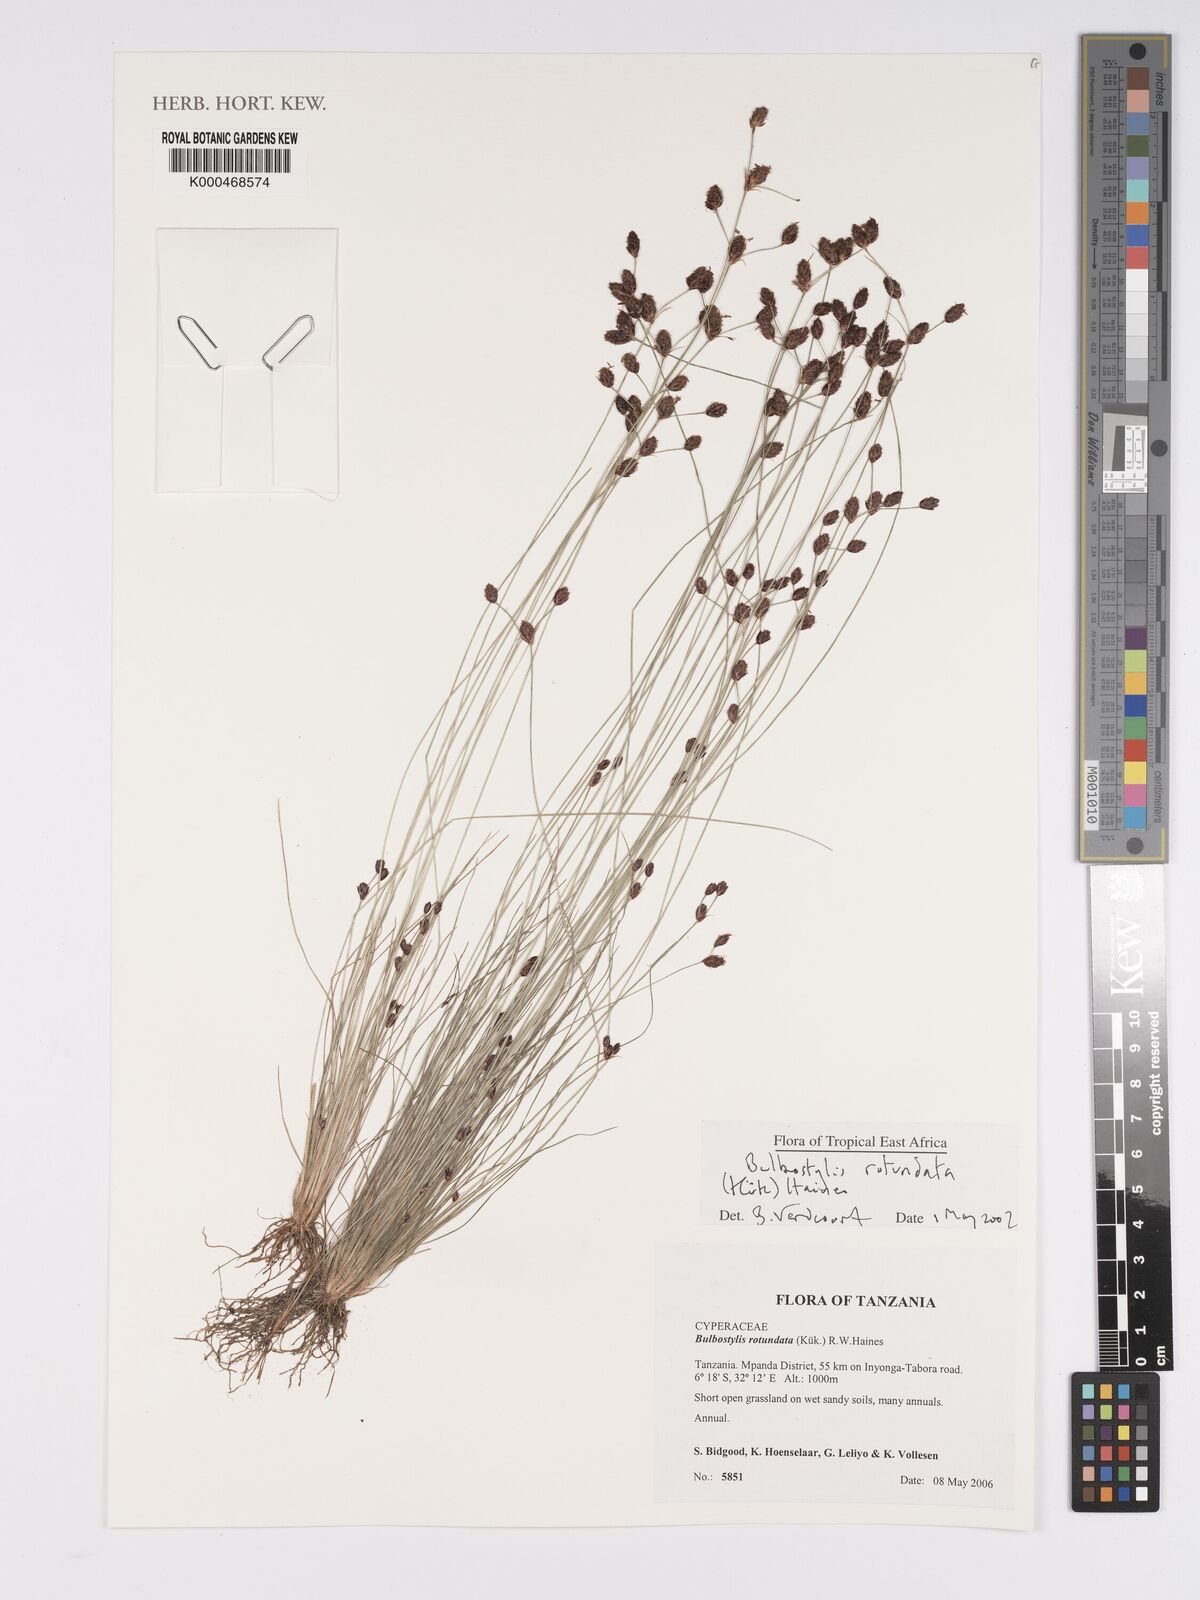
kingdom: Plantae
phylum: Tracheophyta
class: Liliopsida
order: Poales
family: Cyperaceae
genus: Bulbostylis
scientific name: Bulbostylis
